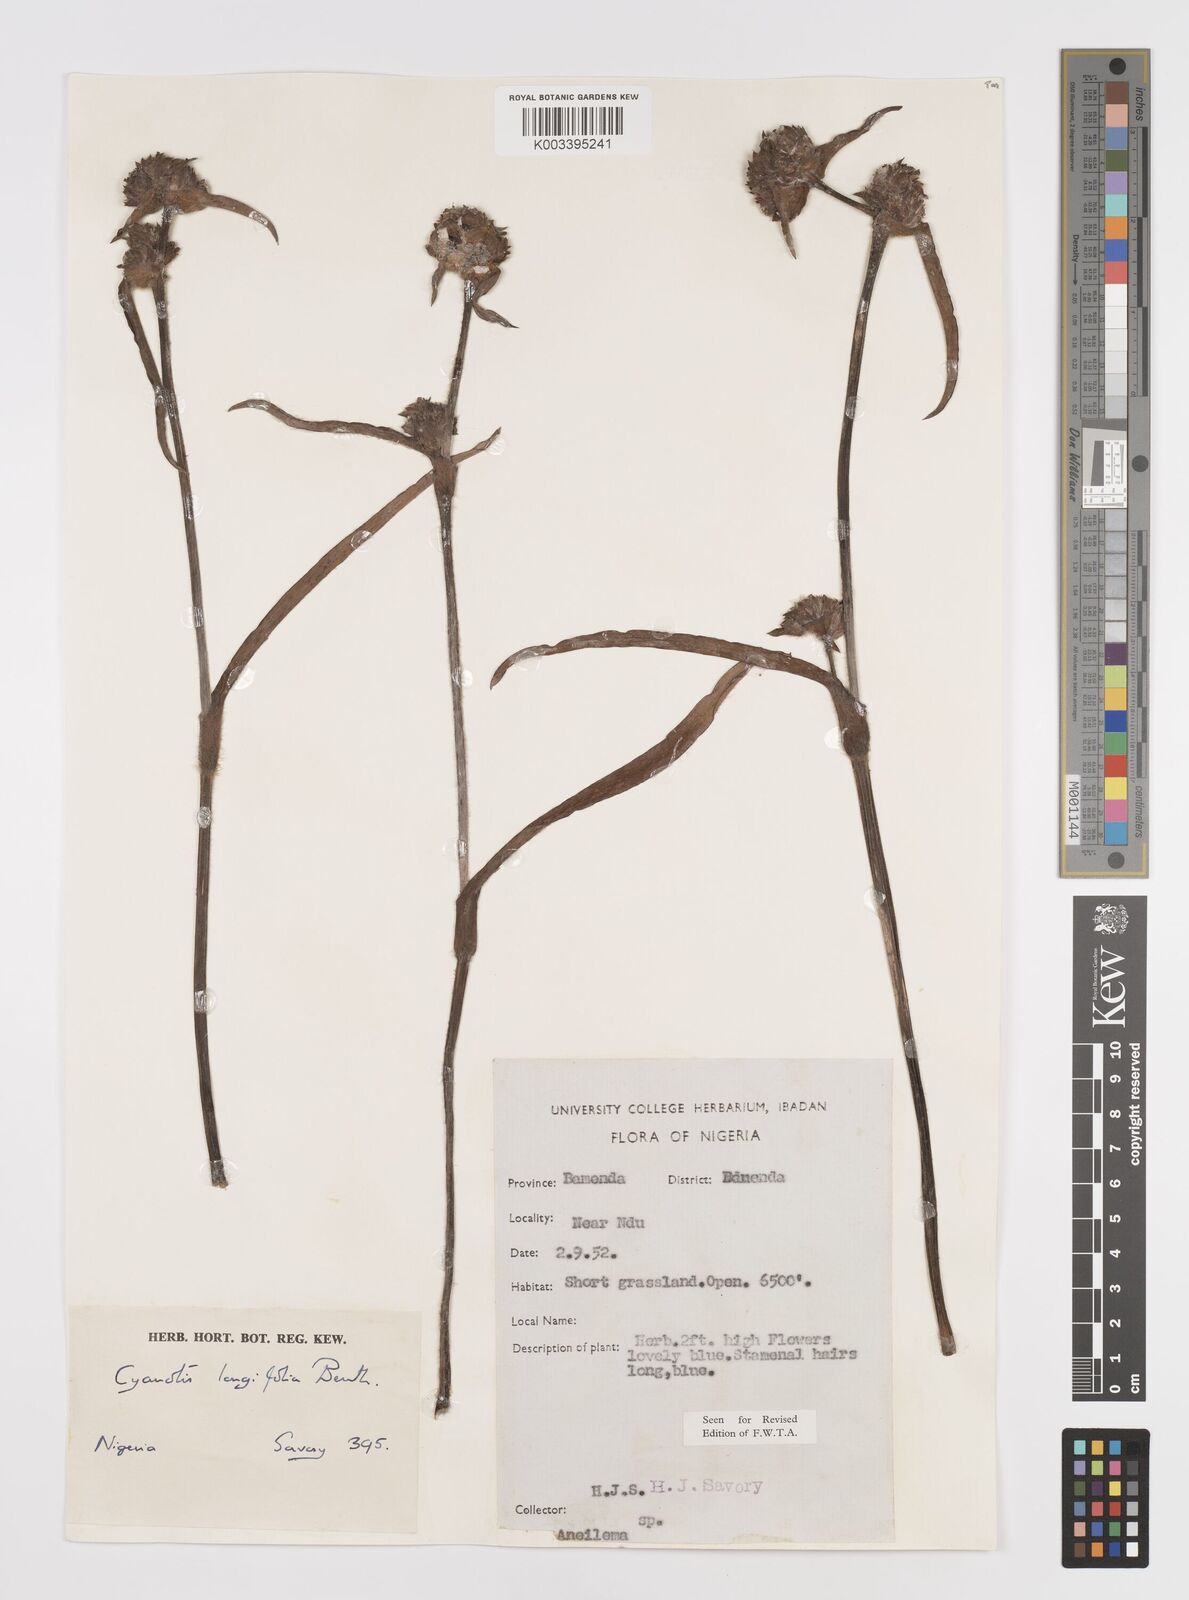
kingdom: Plantae
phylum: Tracheophyta
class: Liliopsida
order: Commelinales
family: Commelinaceae
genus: Cyanotis
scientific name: Cyanotis
